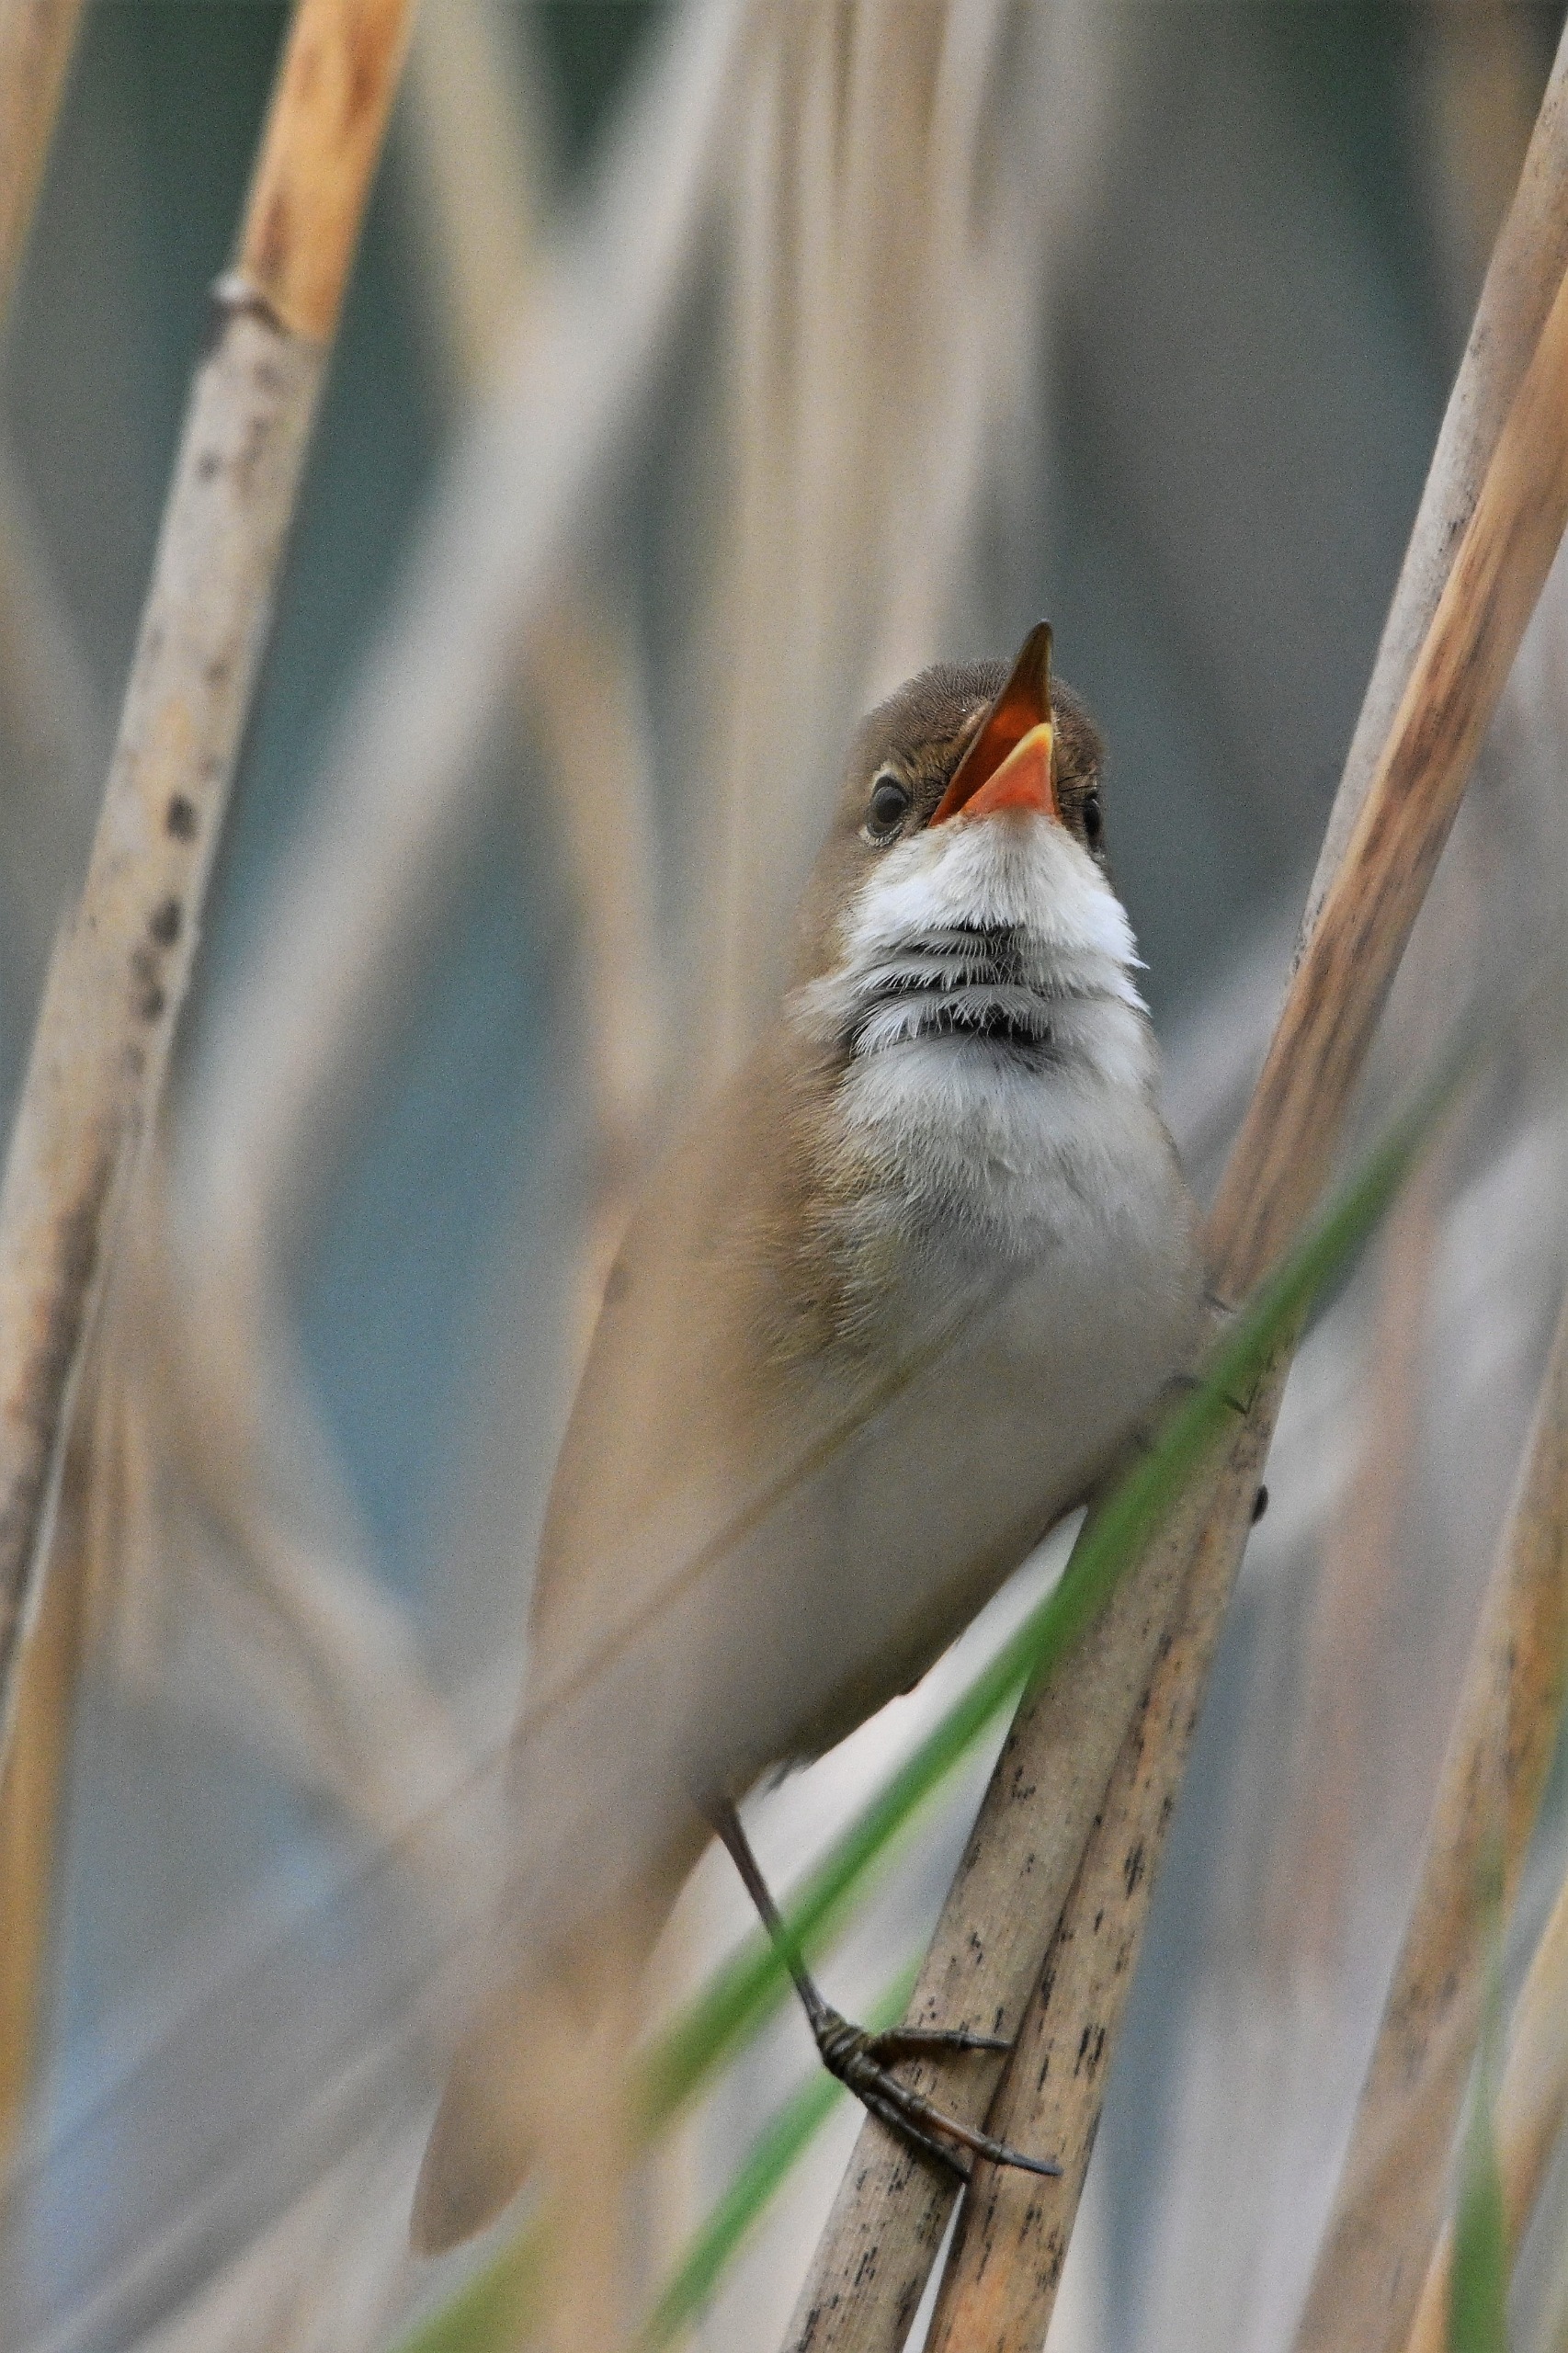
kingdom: Animalia
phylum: Chordata
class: Aves
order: Passeriformes
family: Acrocephalidae
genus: Acrocephalus
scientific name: Acrocephalus scirpaceus
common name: Rørsanger
